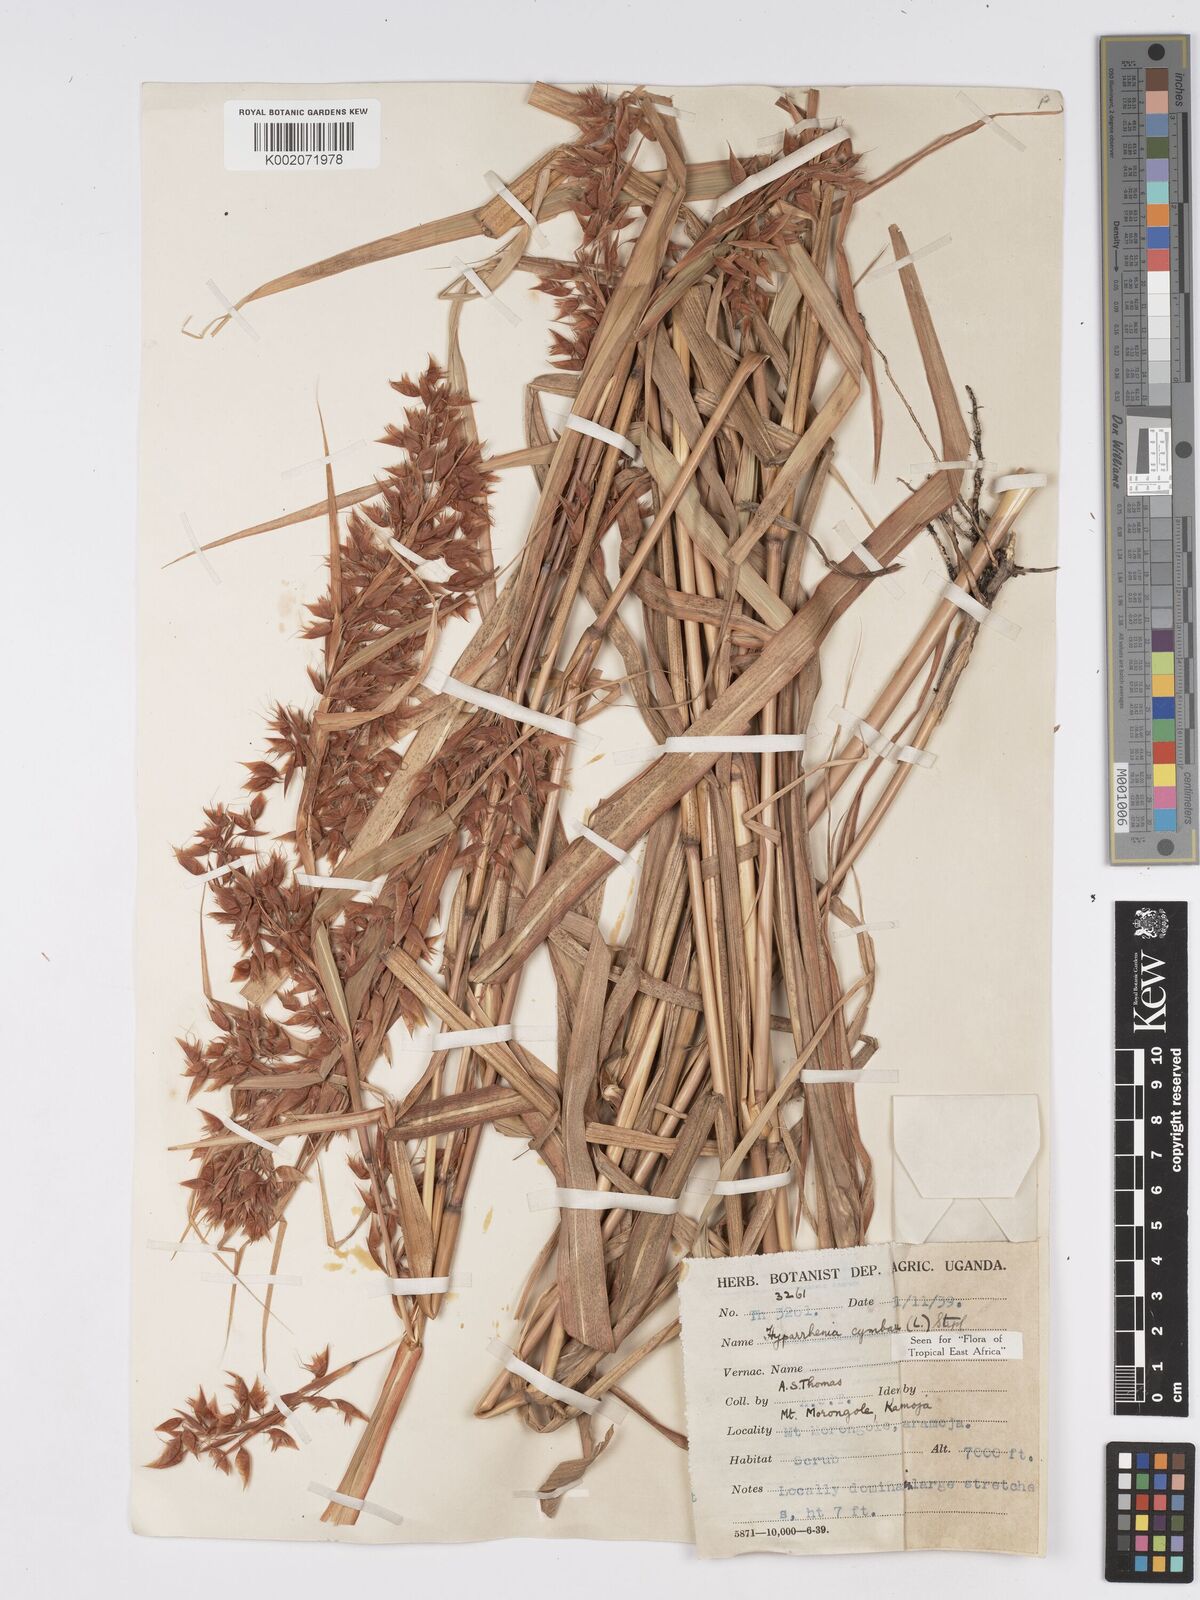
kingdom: Plantae
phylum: Tracheophyta
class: Liliopsida
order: Poales
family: Poaceae
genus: Hyparrhenia
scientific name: Hyparrhenia cymbaria
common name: Boat thatching grass
